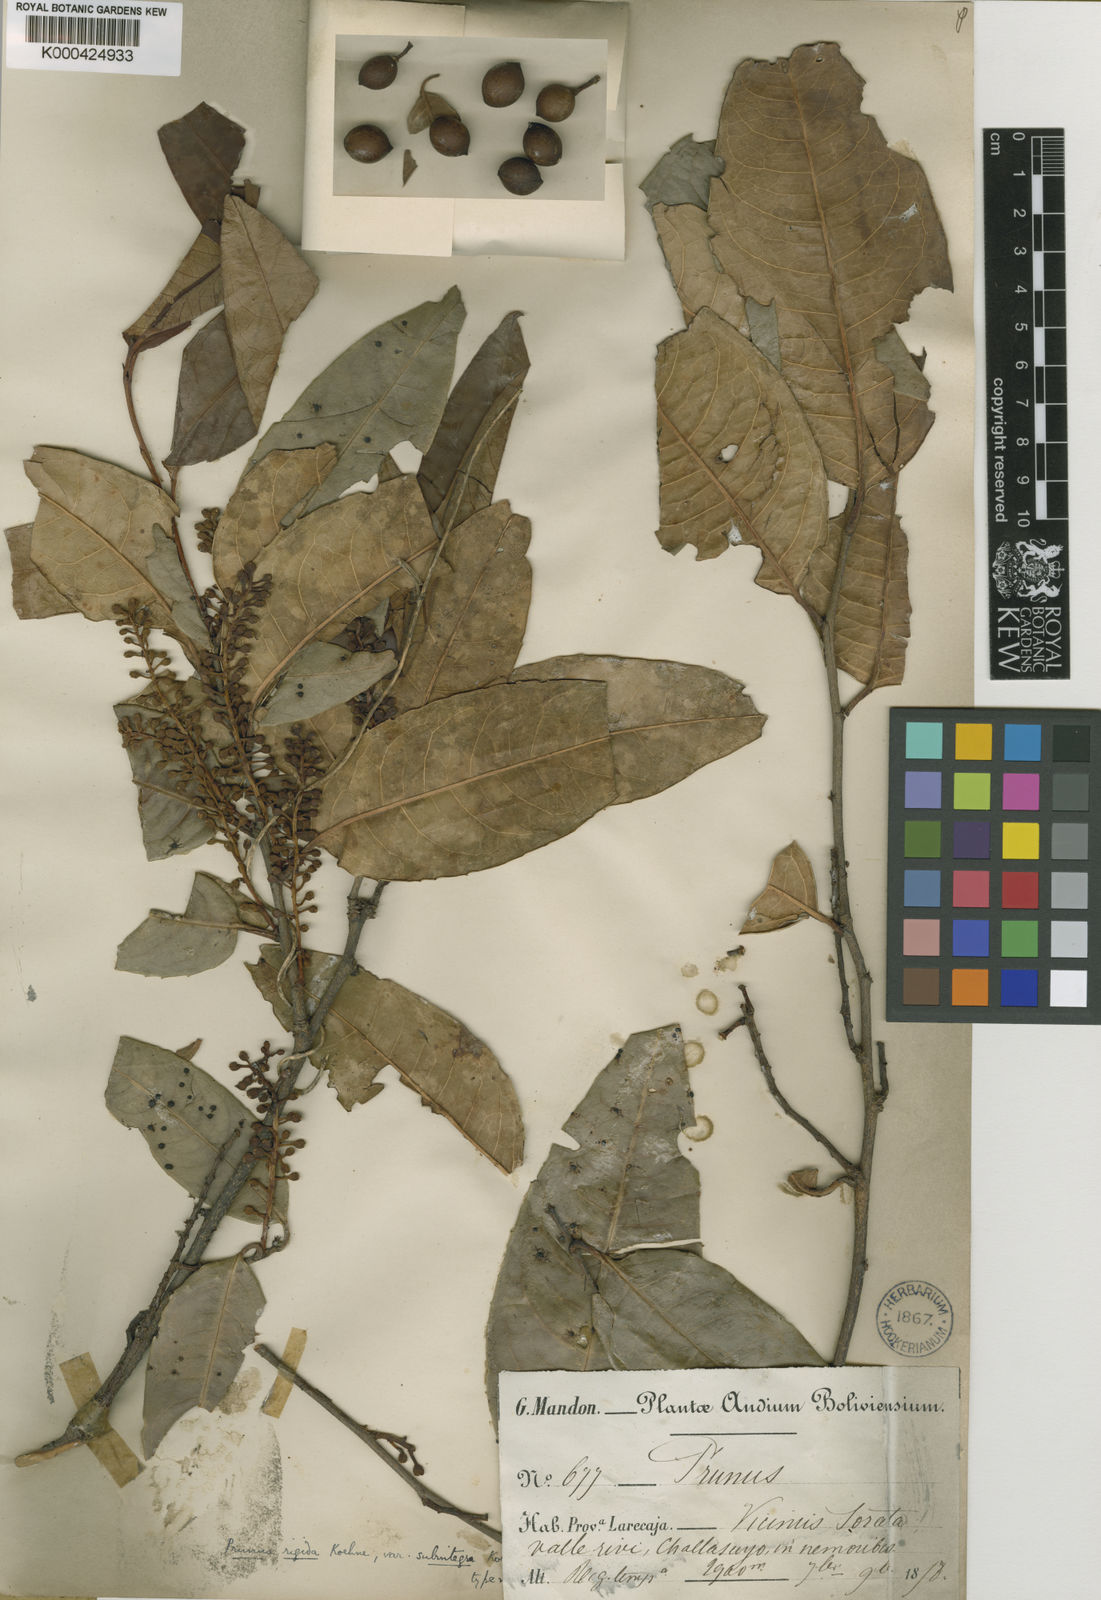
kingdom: Plantae
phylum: Tracheophyta
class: Magnoliopsida
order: Rosales
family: Rosaceae
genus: Prunus
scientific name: Prunus rigida
